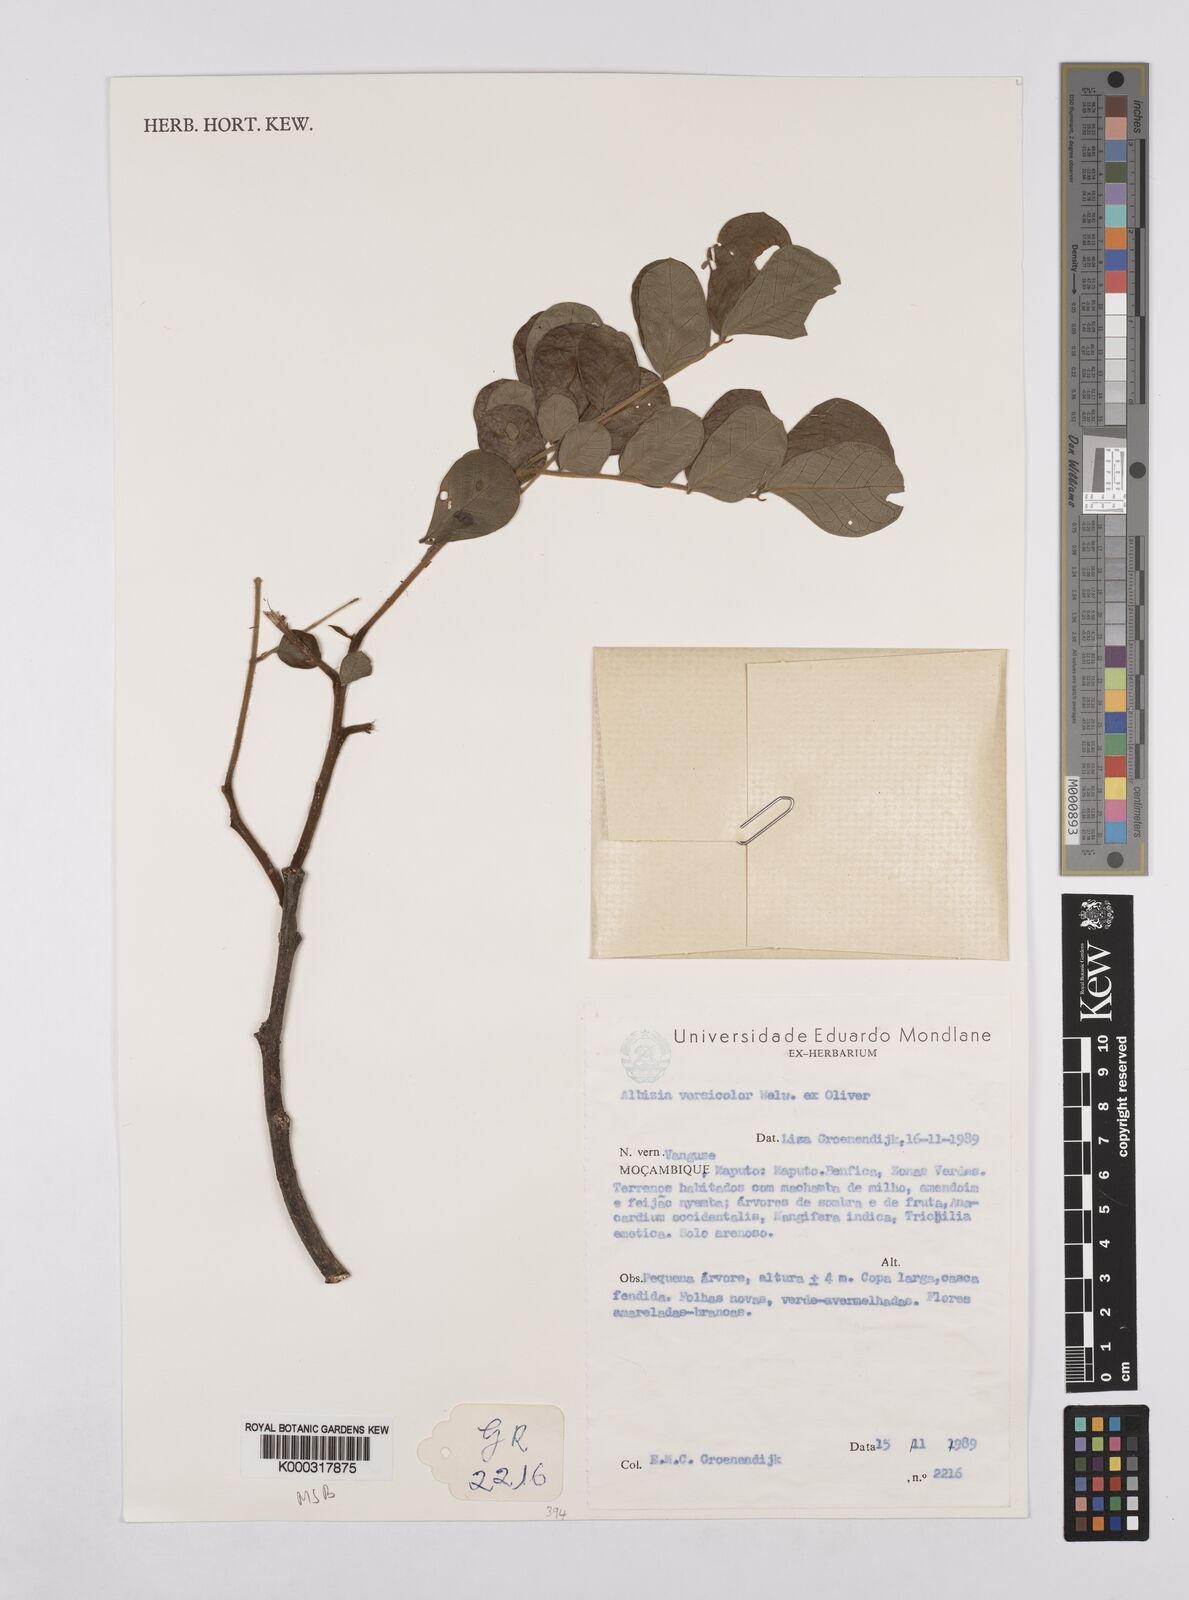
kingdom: Plantae
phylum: Tracheophyta
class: Magnoliopsida
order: Fabales
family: Fabaceae
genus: Albizia
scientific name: Albizia versicolor
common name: Poisonpod
